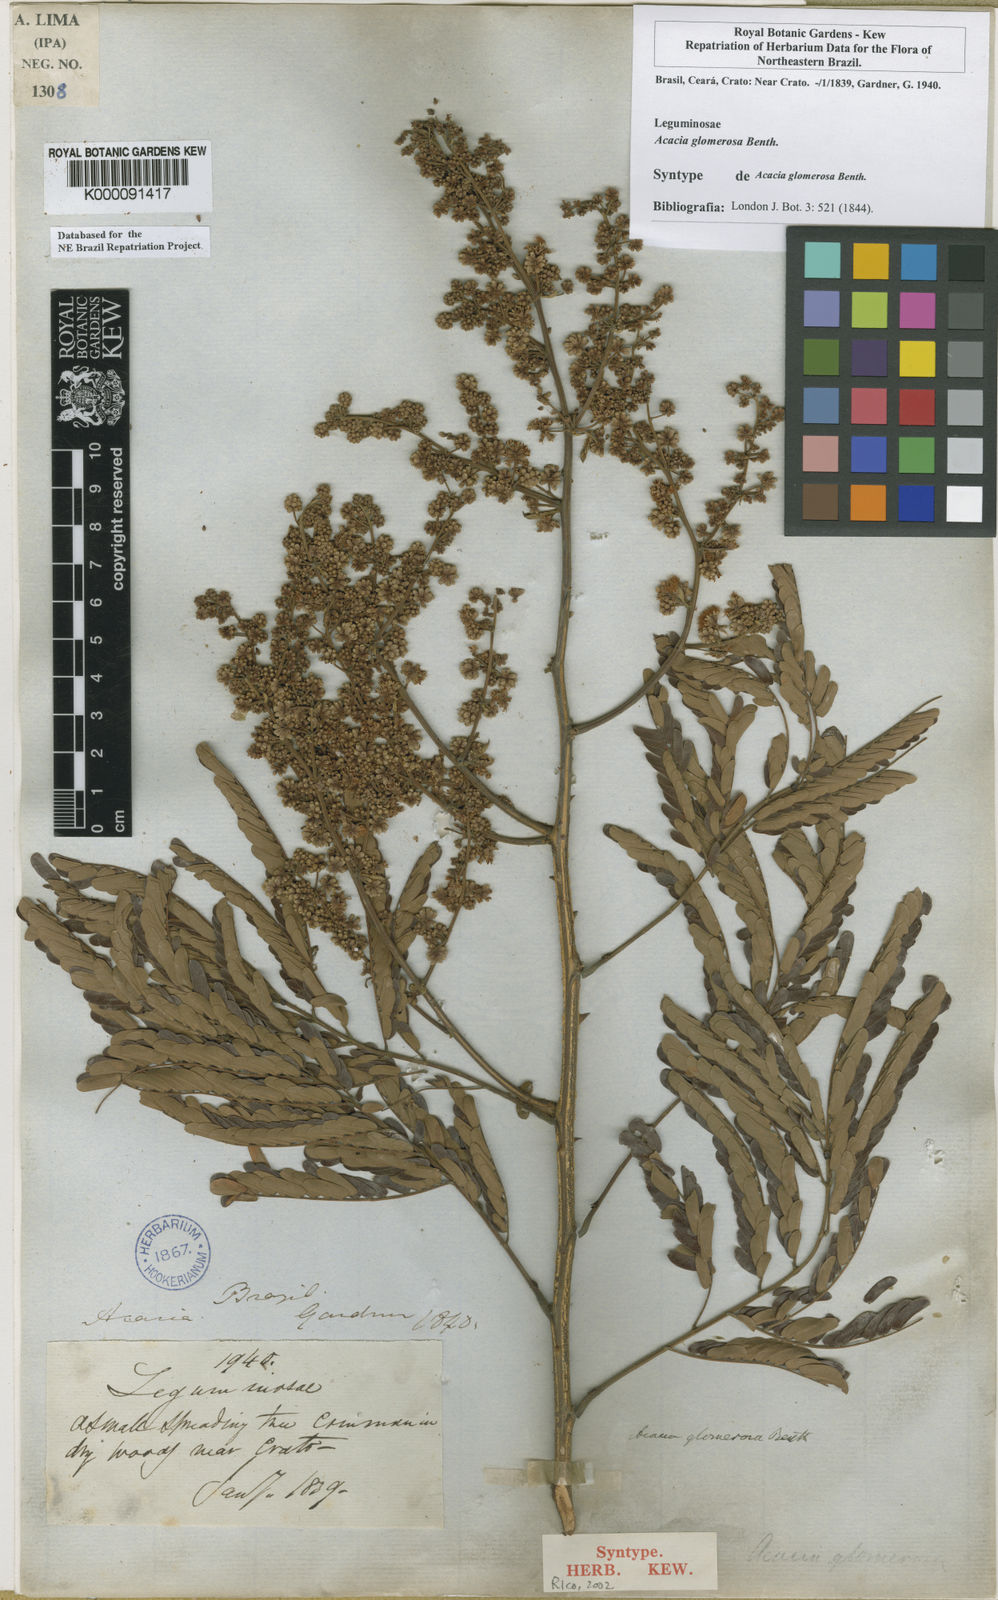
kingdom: Plantae
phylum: Tracheophyta
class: Magnoliopsida
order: Fabales
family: Fabaceae
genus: Senegalia
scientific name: Senegalia polyphylla
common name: White-tamarind
